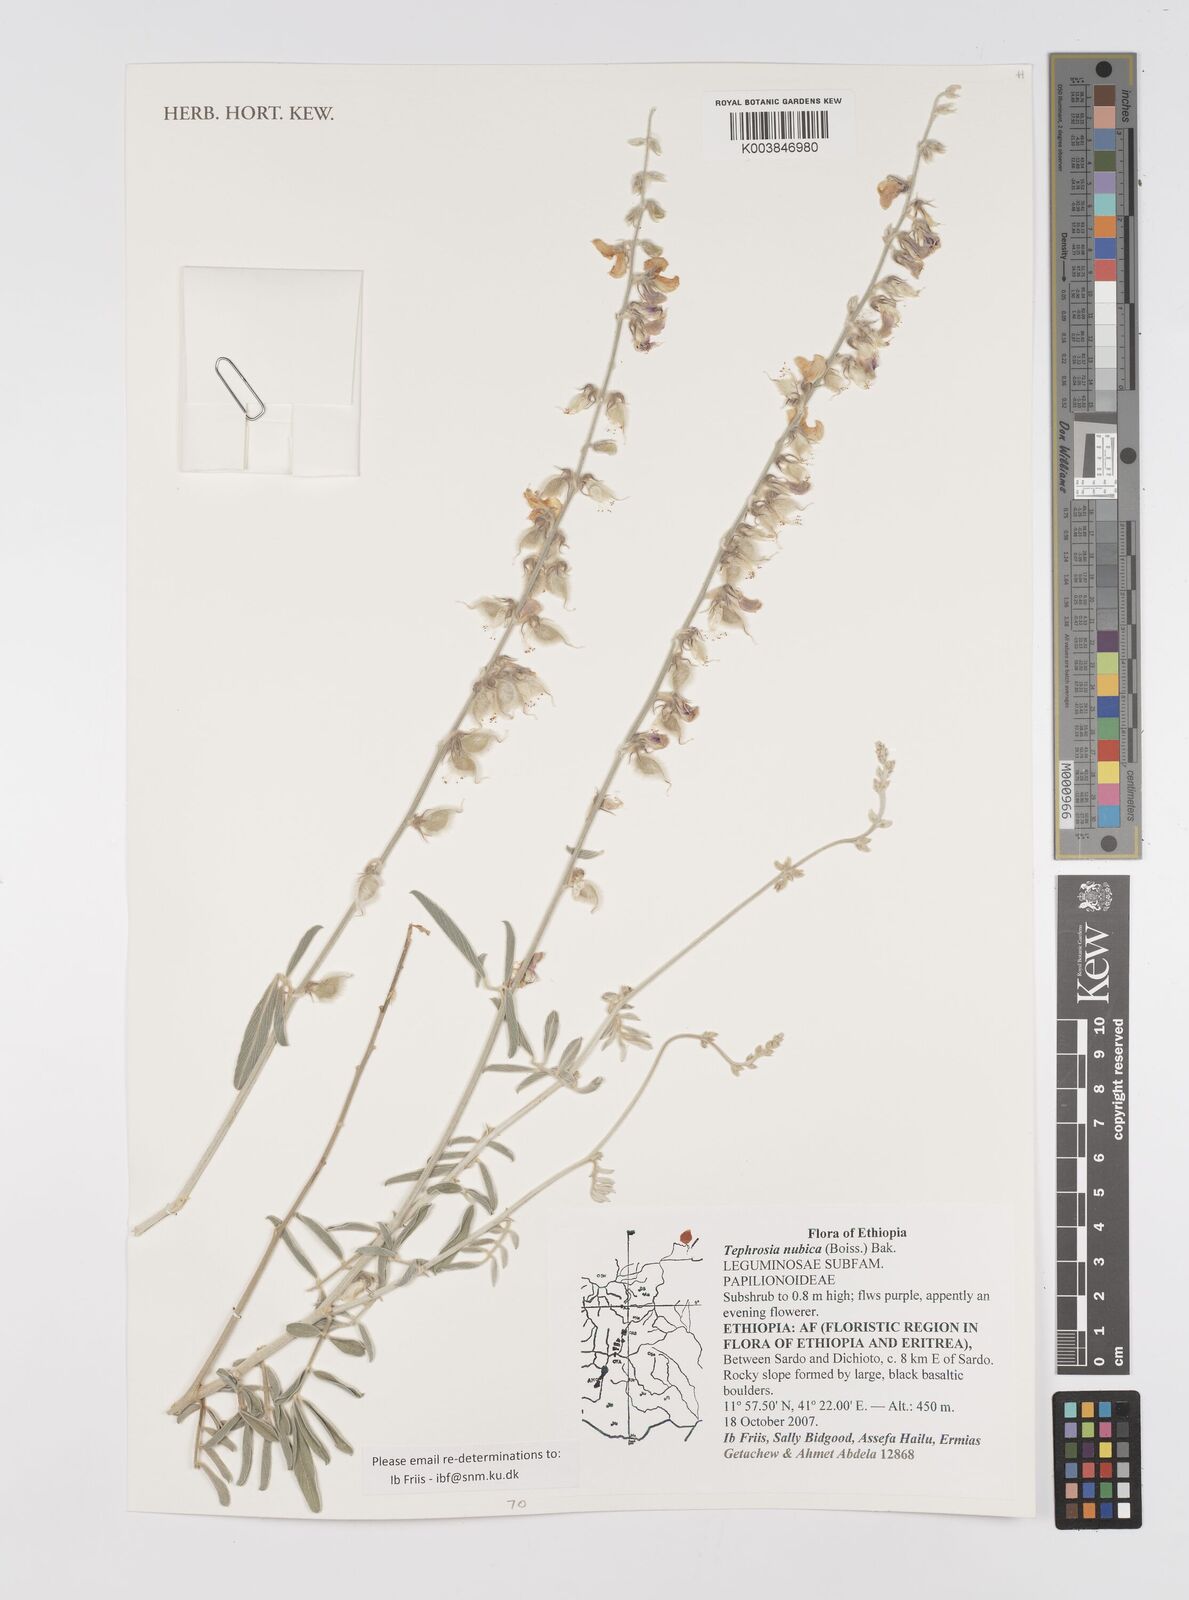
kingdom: Plantae
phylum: Tracheophyta
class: Magnoliopsida
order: Fabales
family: Fabaceae
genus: Tephrosia
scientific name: Tephrosia nubica
